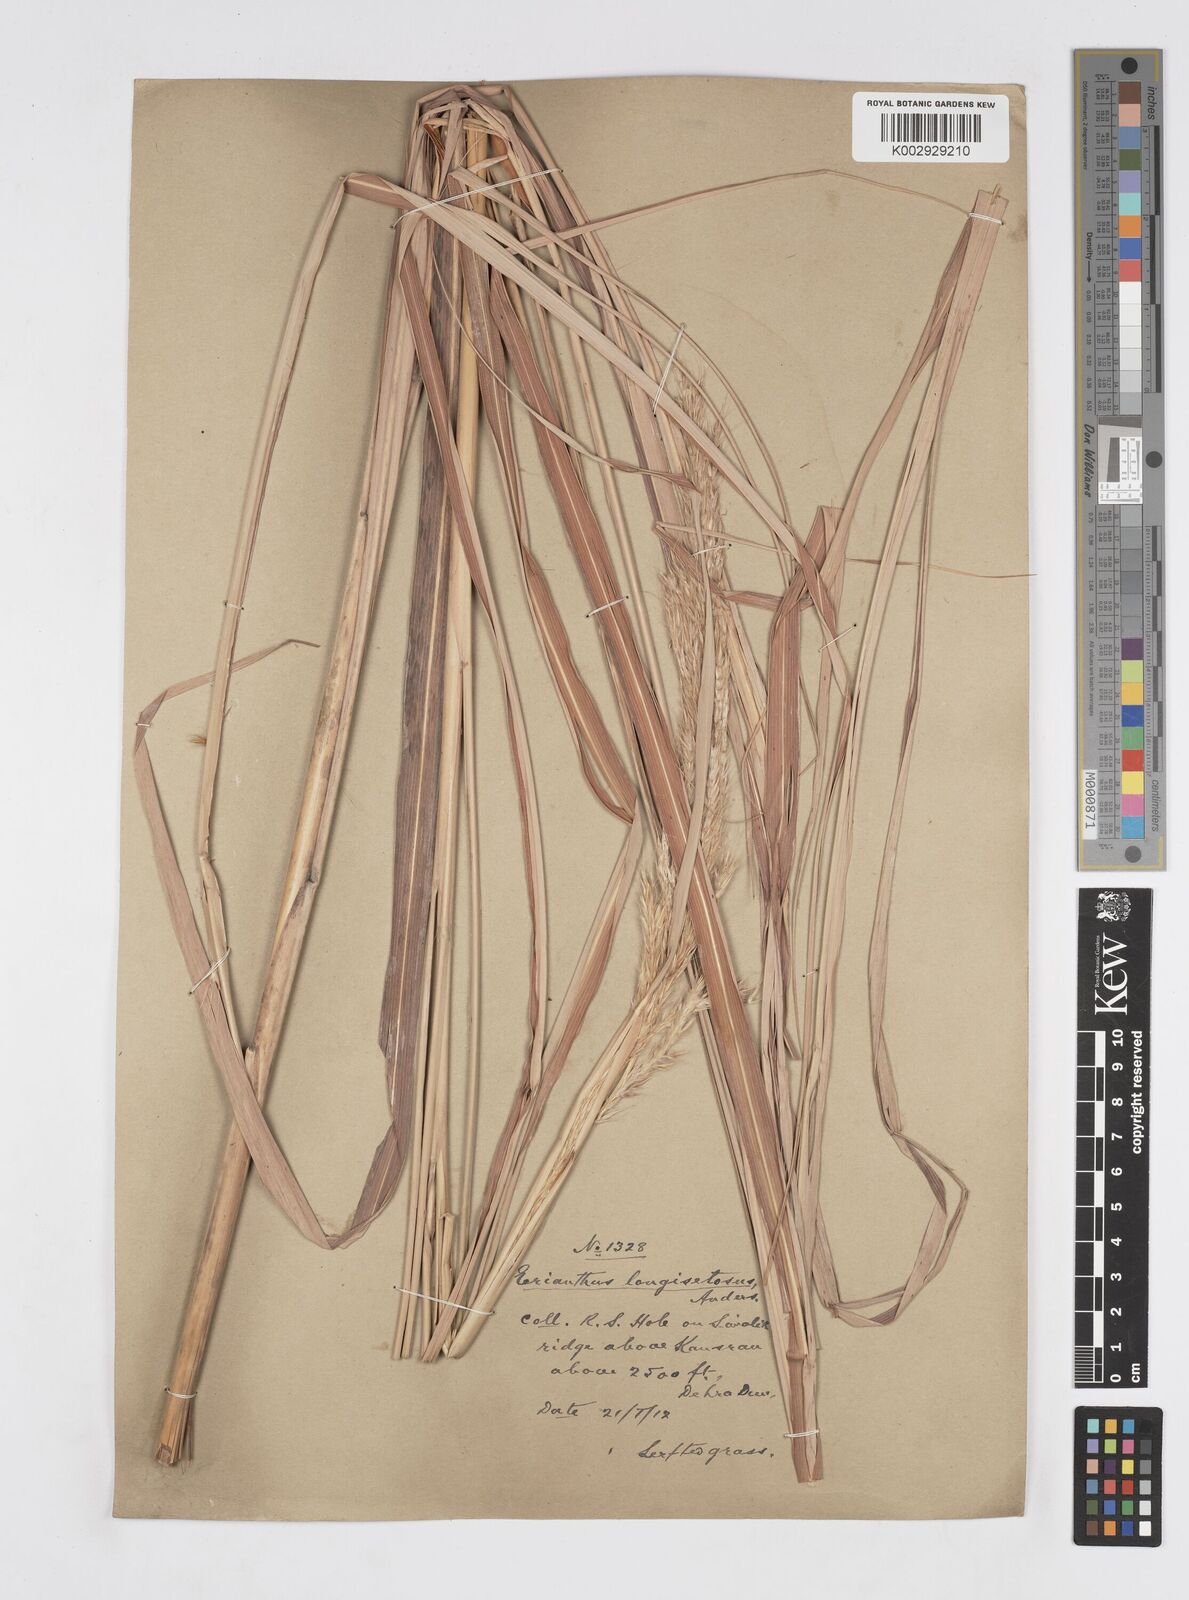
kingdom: Plantae
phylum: Tracheophyta
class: Liliopsida
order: Poales
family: Poaceae
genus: Melinis
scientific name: Melinis longiseta
